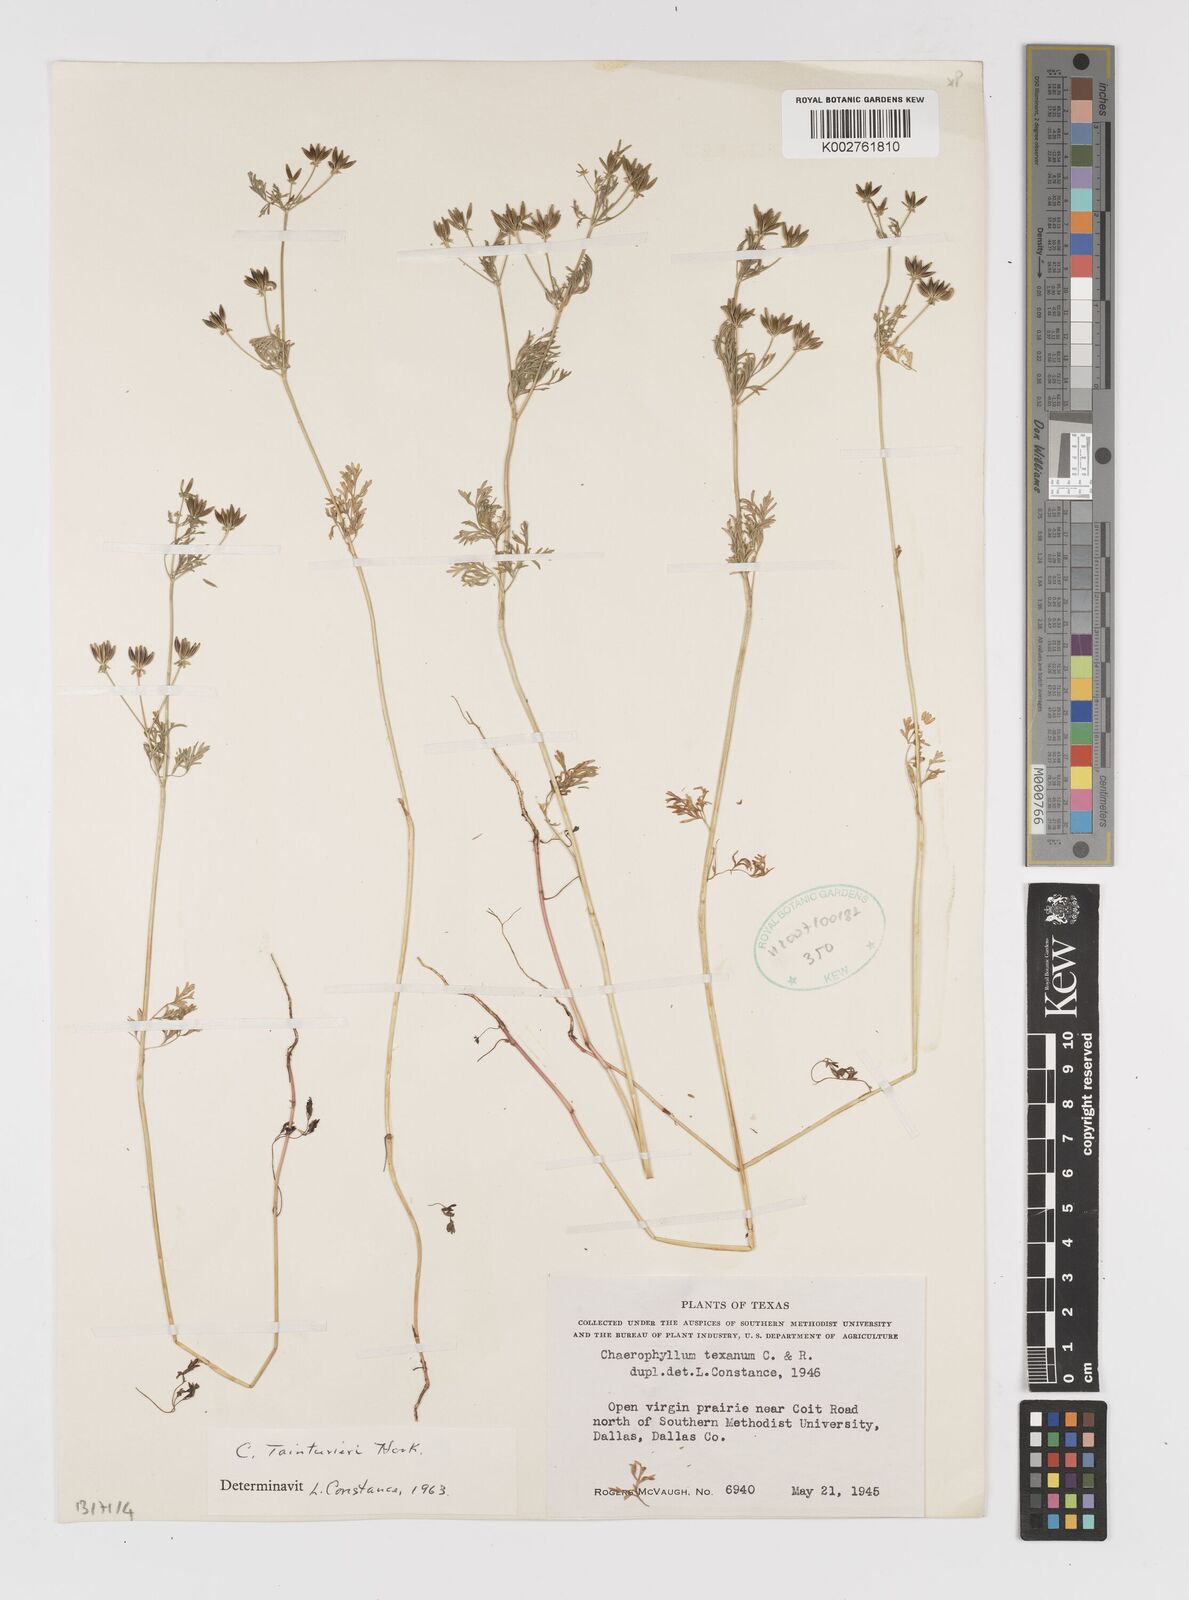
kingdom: Plantae
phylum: Tracheophyta
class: Magnoliopsida
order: Apiales
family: Apiaceae
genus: Chaerophyllum
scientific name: Chaerophyllum tainturieri
